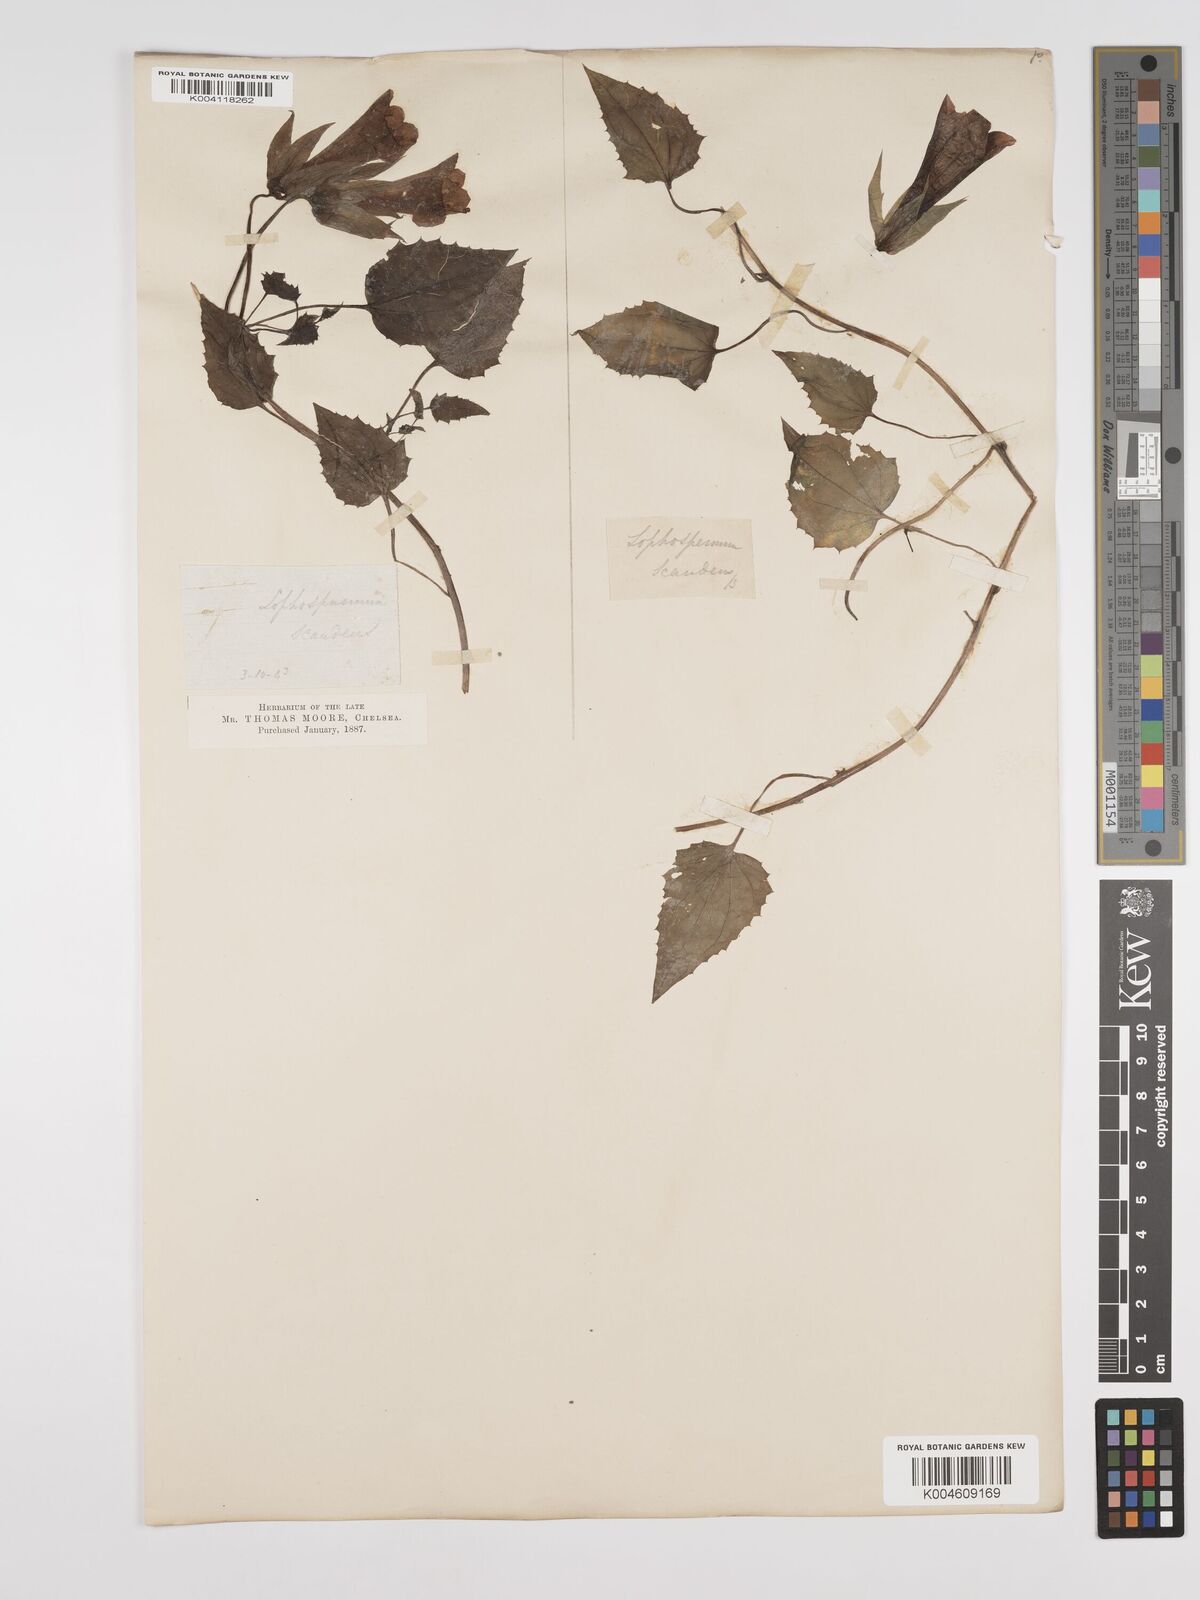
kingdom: Plantae
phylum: Tracheophyta
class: Magnoliopsida
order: Lamiales
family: Plantaginaceae
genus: Lophospermum
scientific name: Lophospermum erubescens
